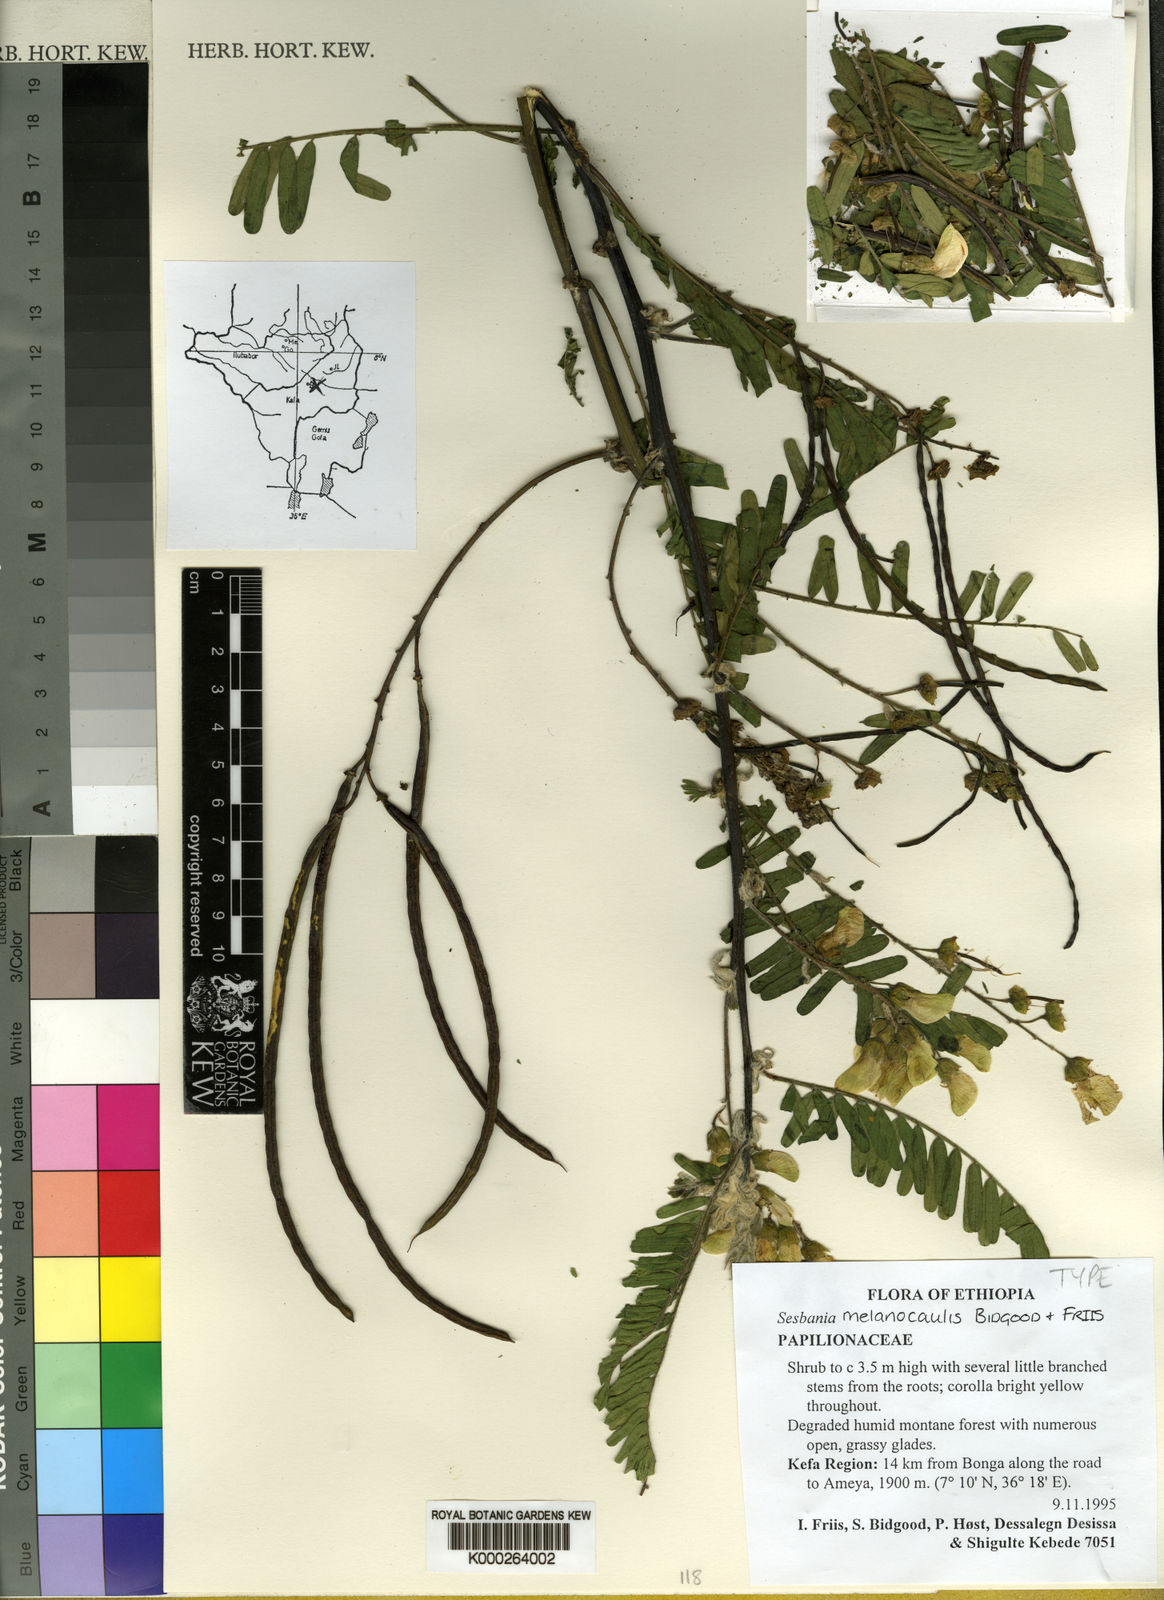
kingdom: Plantae
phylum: Tracheophyta
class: Magnoliopsida
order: Fabales
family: Fabaceae
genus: Sesbania
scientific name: Sesbania melanocaulis
